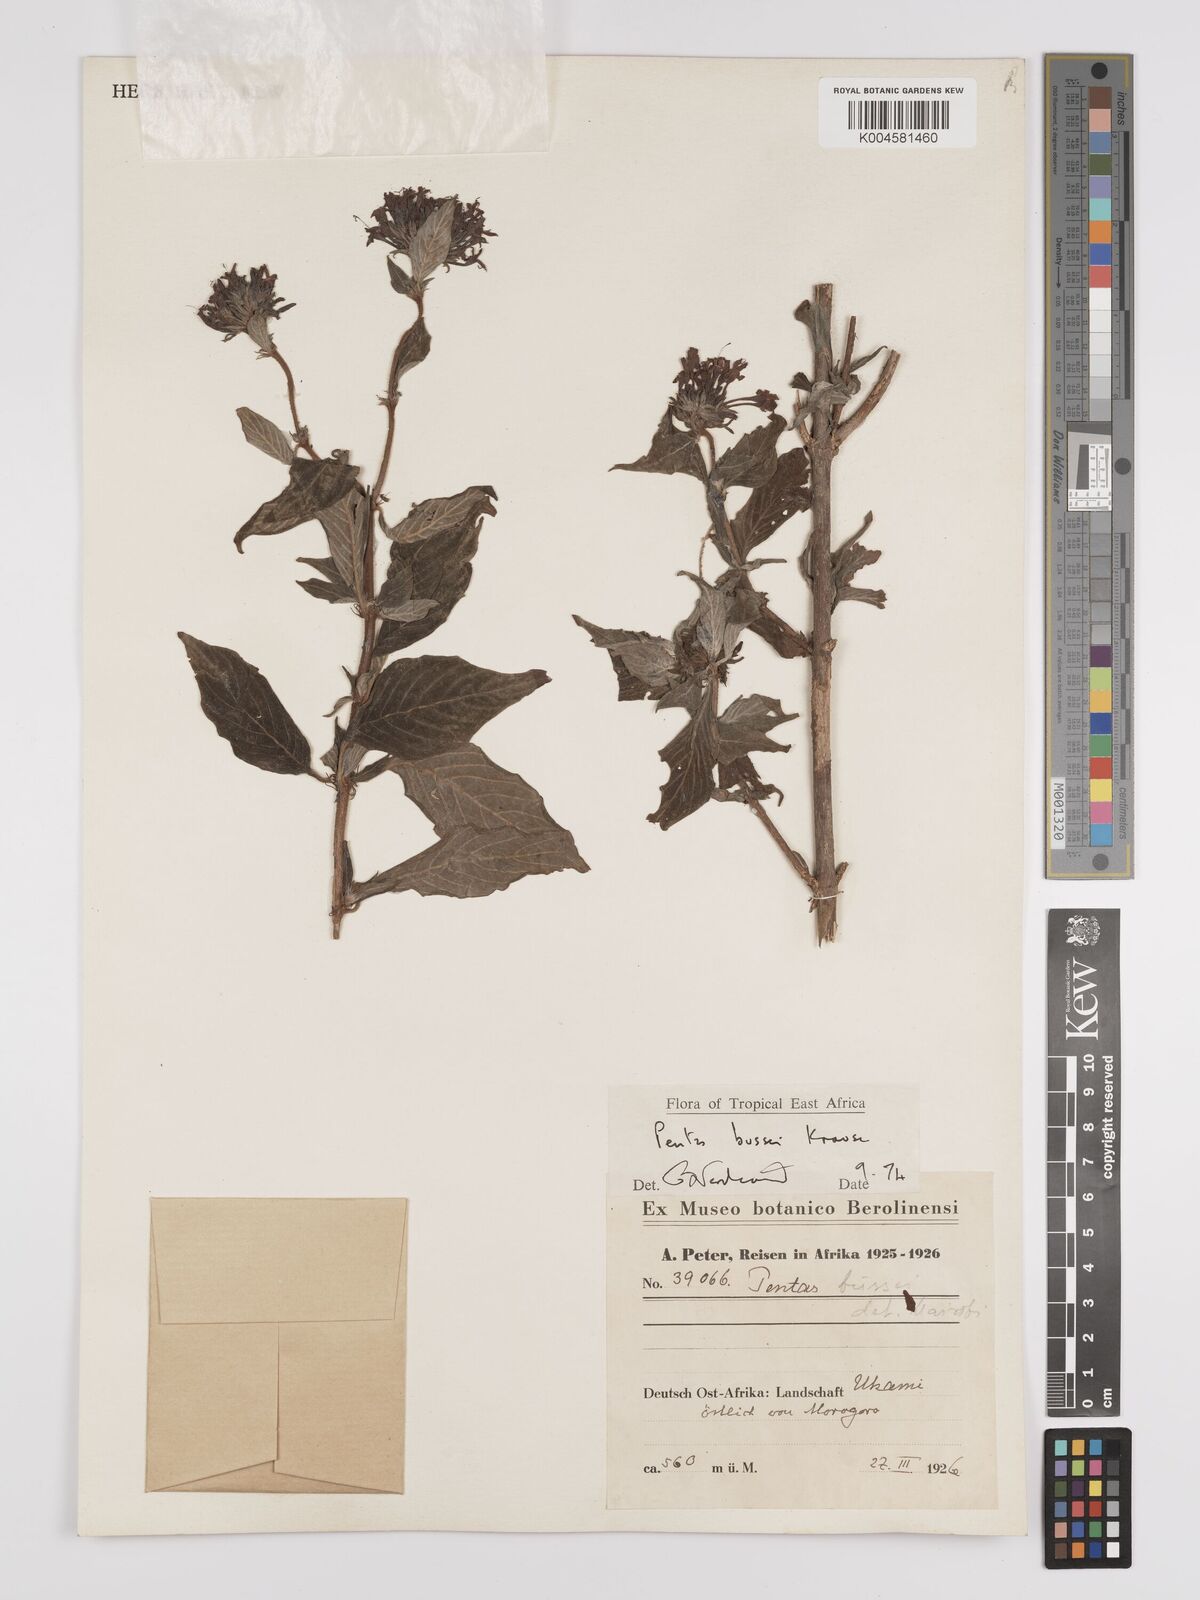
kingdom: Plantae
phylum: Tracheophyta
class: Magnoliopsida
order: Gentianales
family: Rubiaceae
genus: Rhodopentas
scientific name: Rhodopentas bussei
